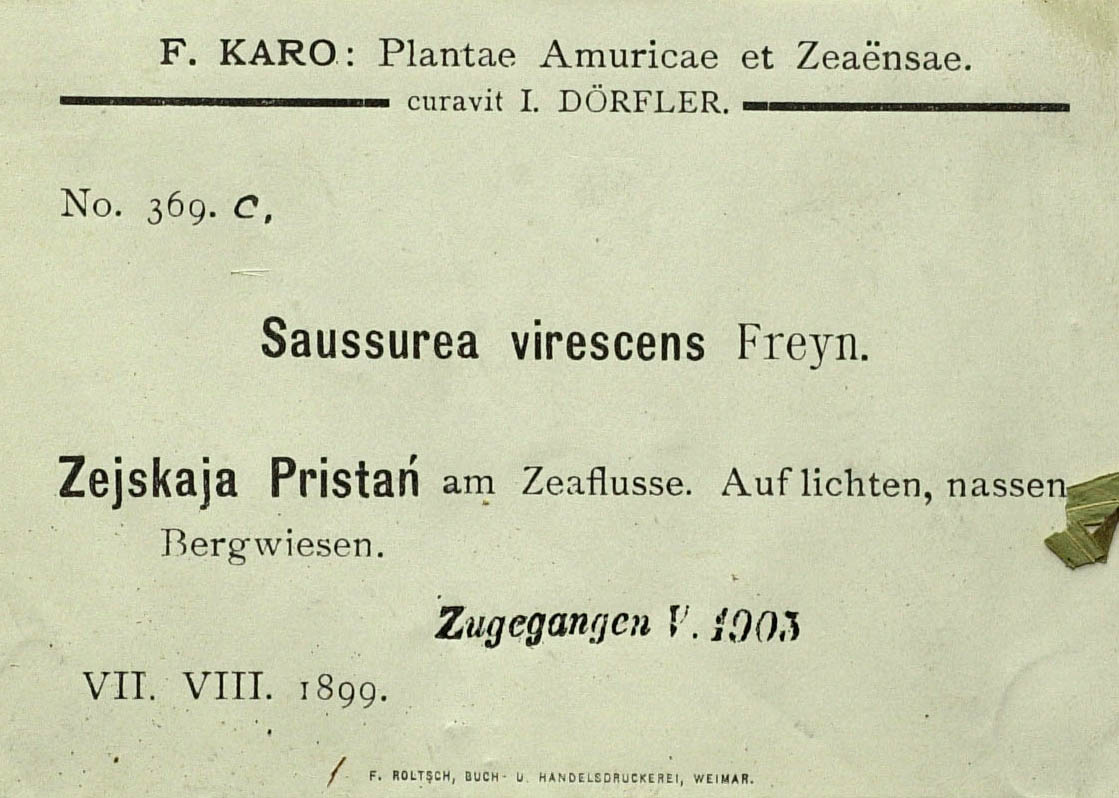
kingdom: Plantae
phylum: Tracheophyta
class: Magnoliopsida
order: Asterales
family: Asteraceae
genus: Saussurea
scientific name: Saussurea dubia
